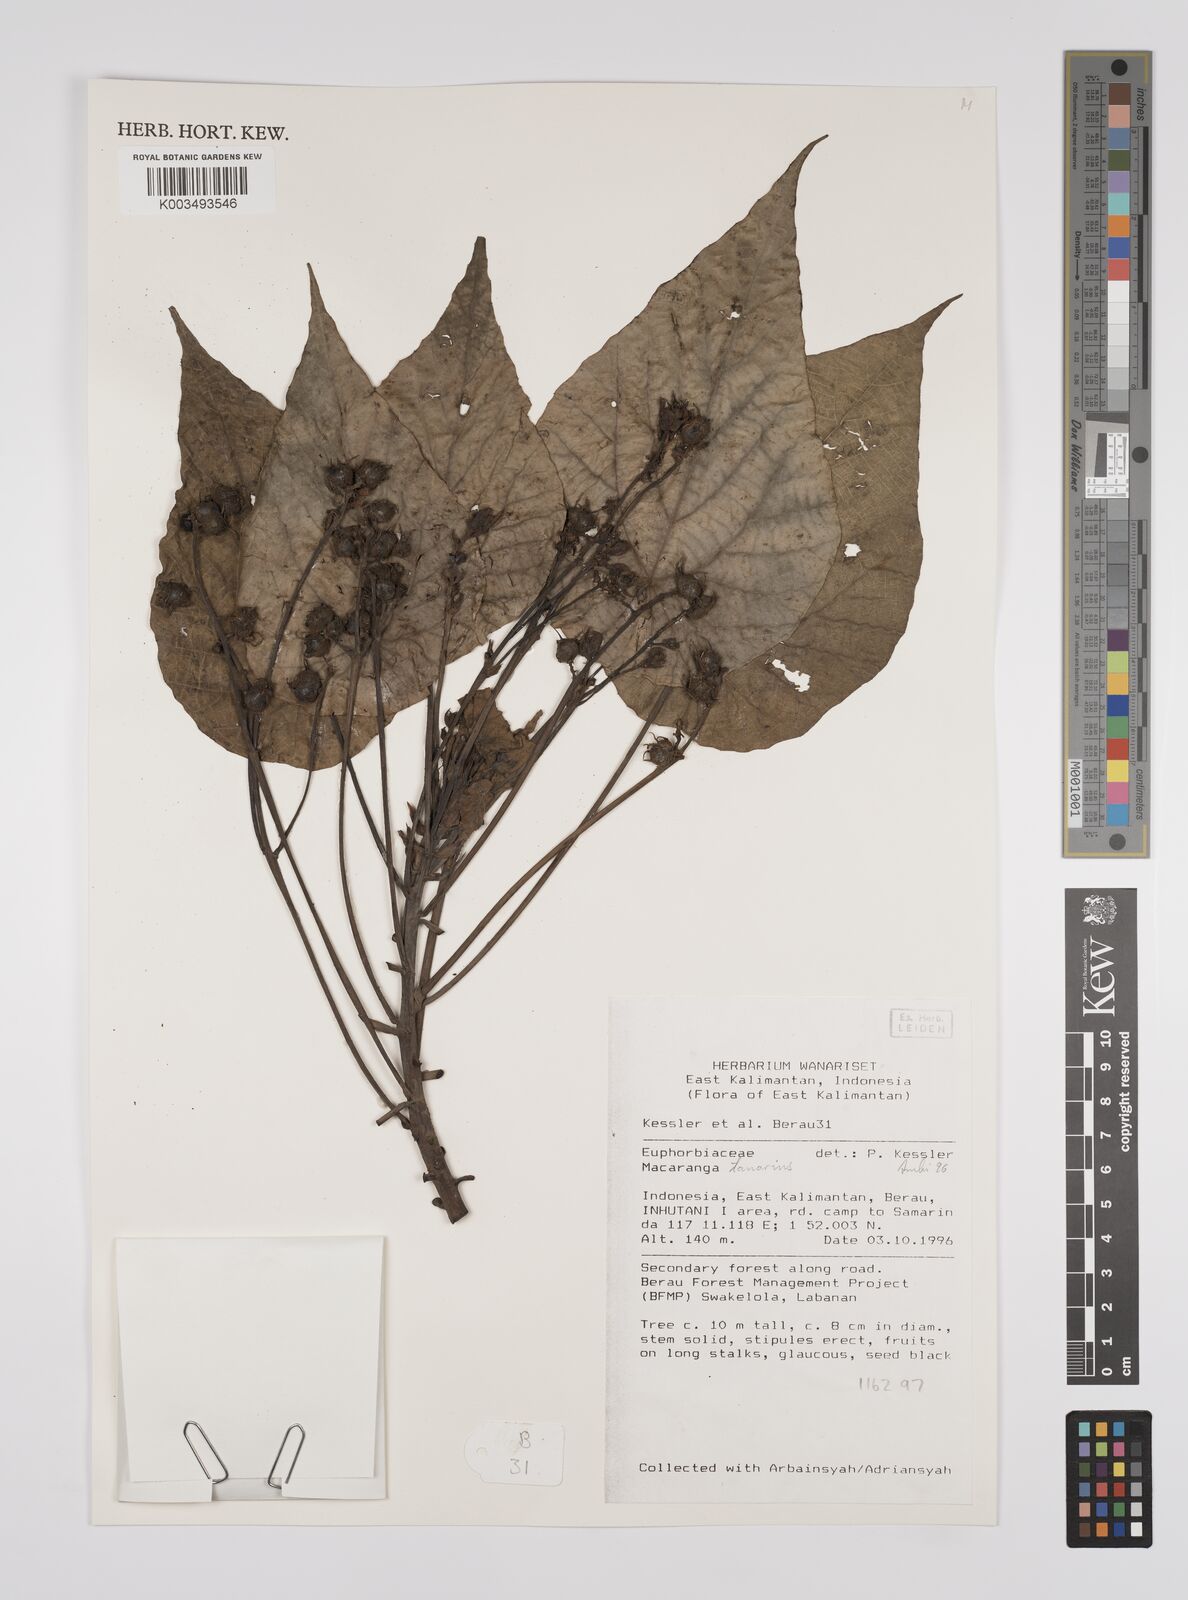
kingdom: Plantae
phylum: Tracheophyta
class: Magnoliopsida
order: Malpighiales
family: Euphorbiaceae
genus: Macaranga
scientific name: Macaranga tanarius
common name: Parasol leaf tree
